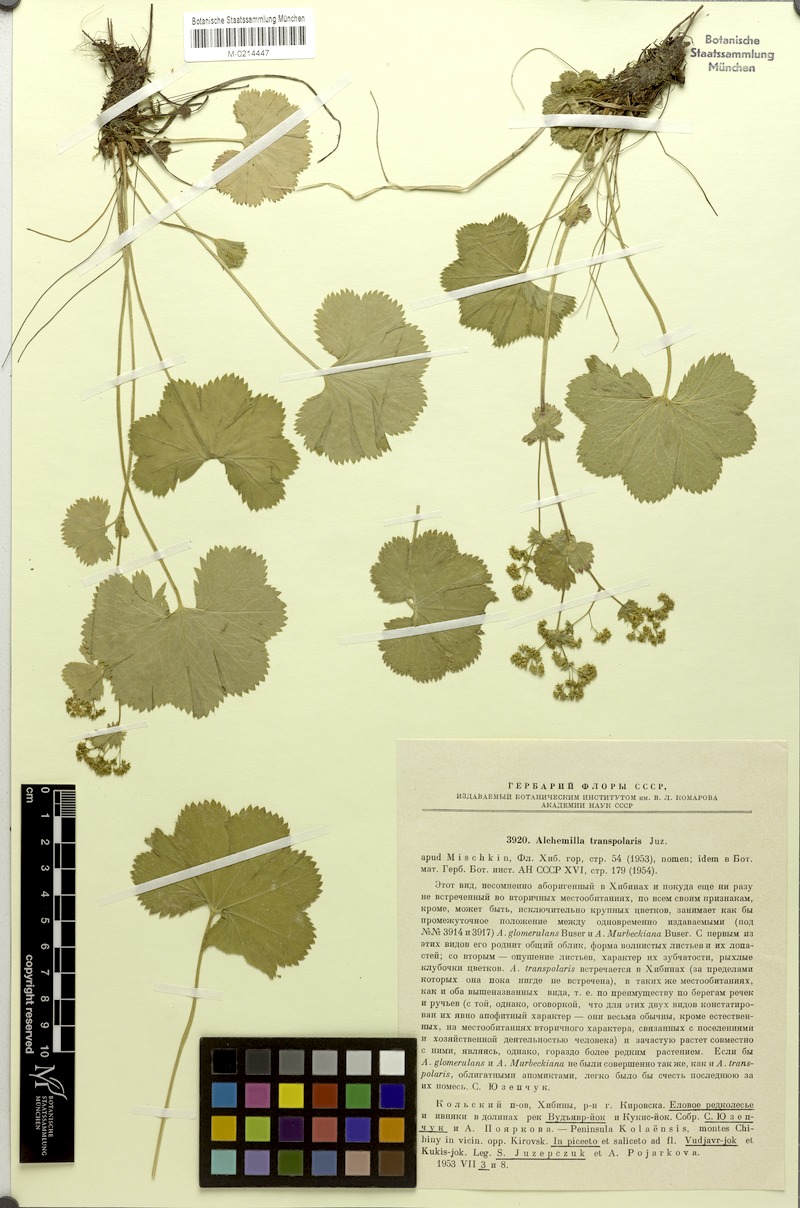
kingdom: Plantae
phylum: Tracheophyta
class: Magnoliopsida
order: Rosales
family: Rosaceae
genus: Alchemilla
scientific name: Alchemilla transpolaris
